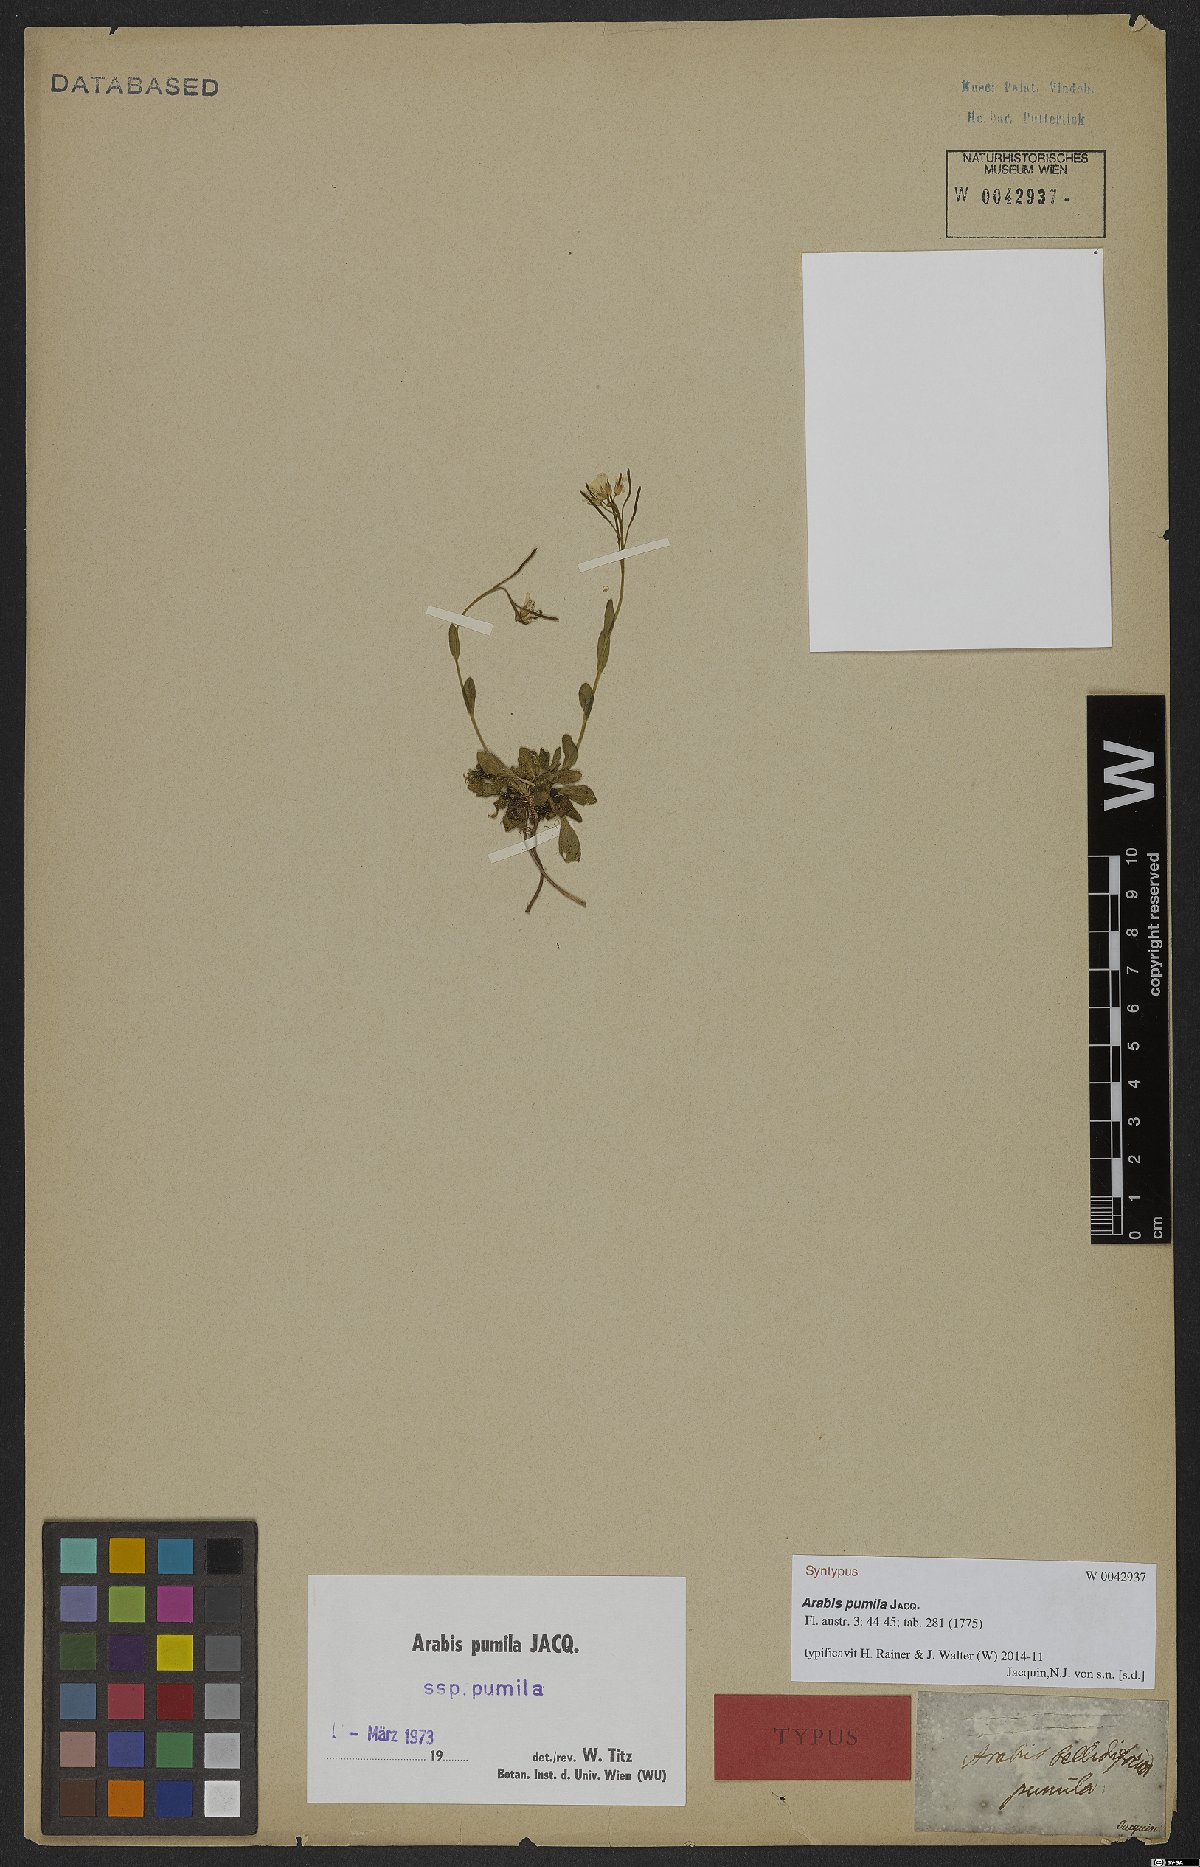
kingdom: Plantae
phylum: Tracheophyta
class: Magnoliopsida
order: Brassicales
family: Brassicaceae
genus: Arabis
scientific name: Arabis pumila
